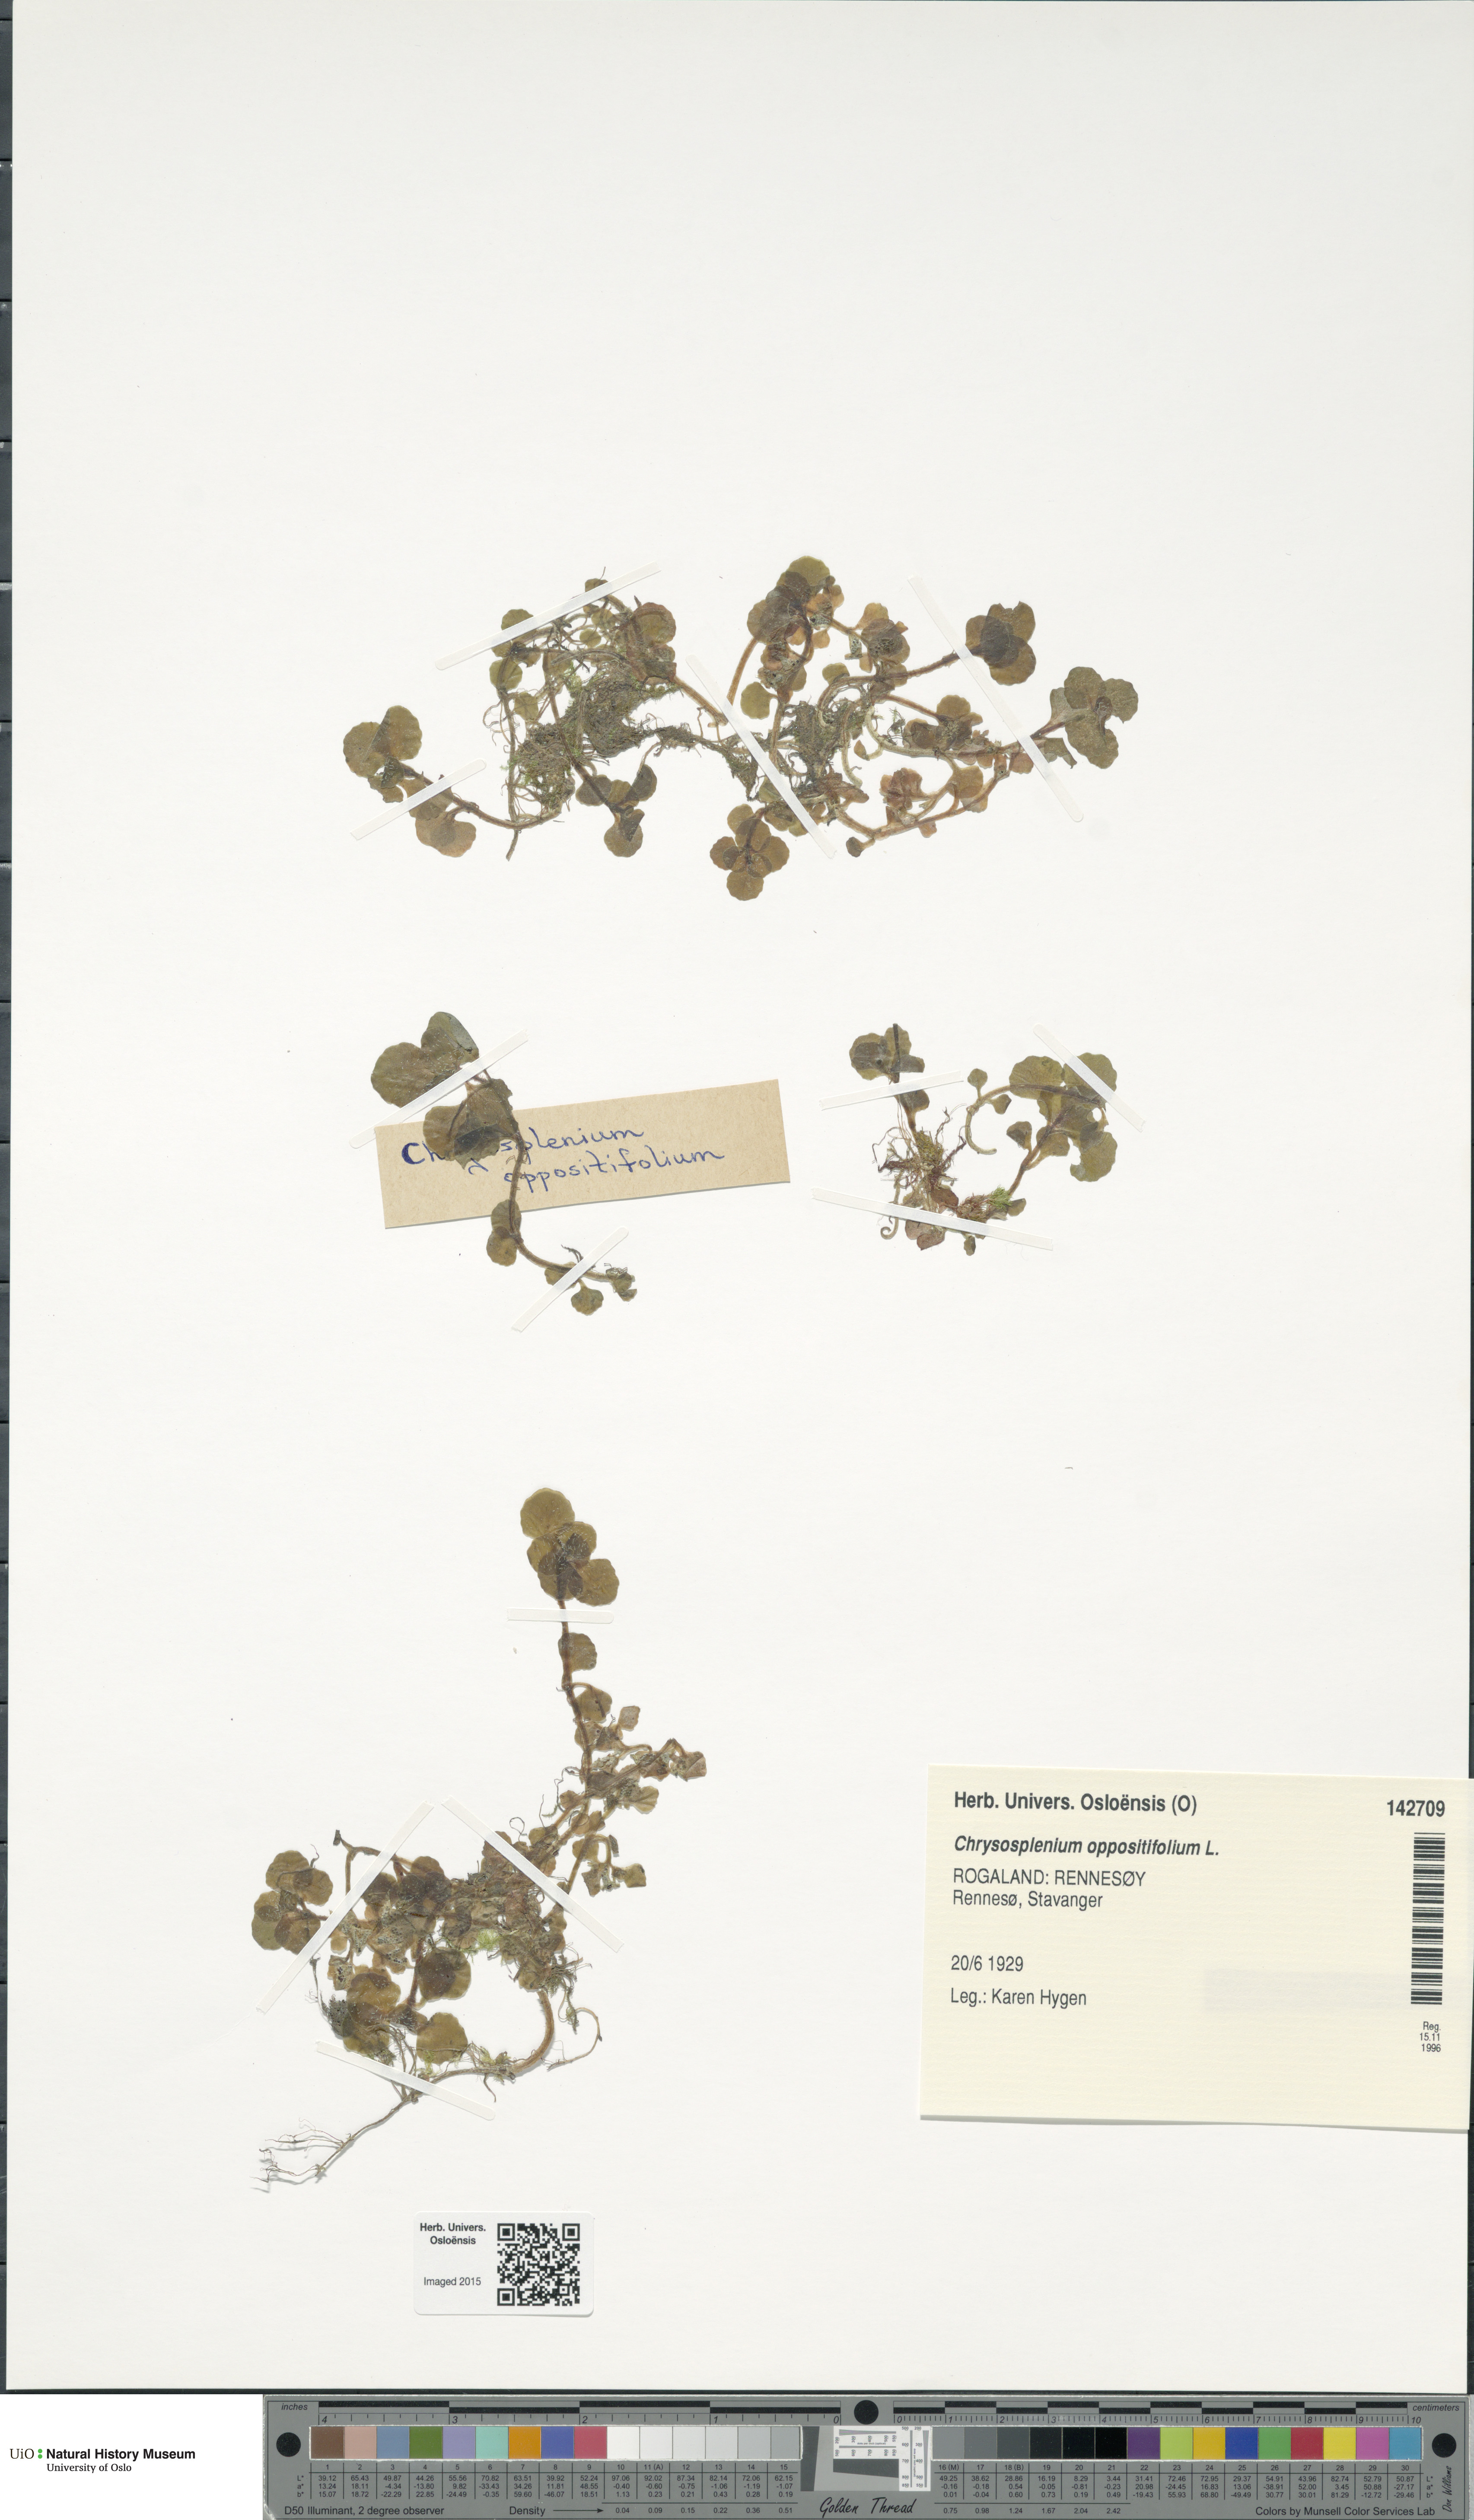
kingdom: Plantae
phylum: Tracheophyta
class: Magnoliopsida
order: Saxifragales
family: Saxifragaceae
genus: Chrysosplenium
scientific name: Chrysosplenium oppositifolium
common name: Opposite-leaved golden-saxifrage
